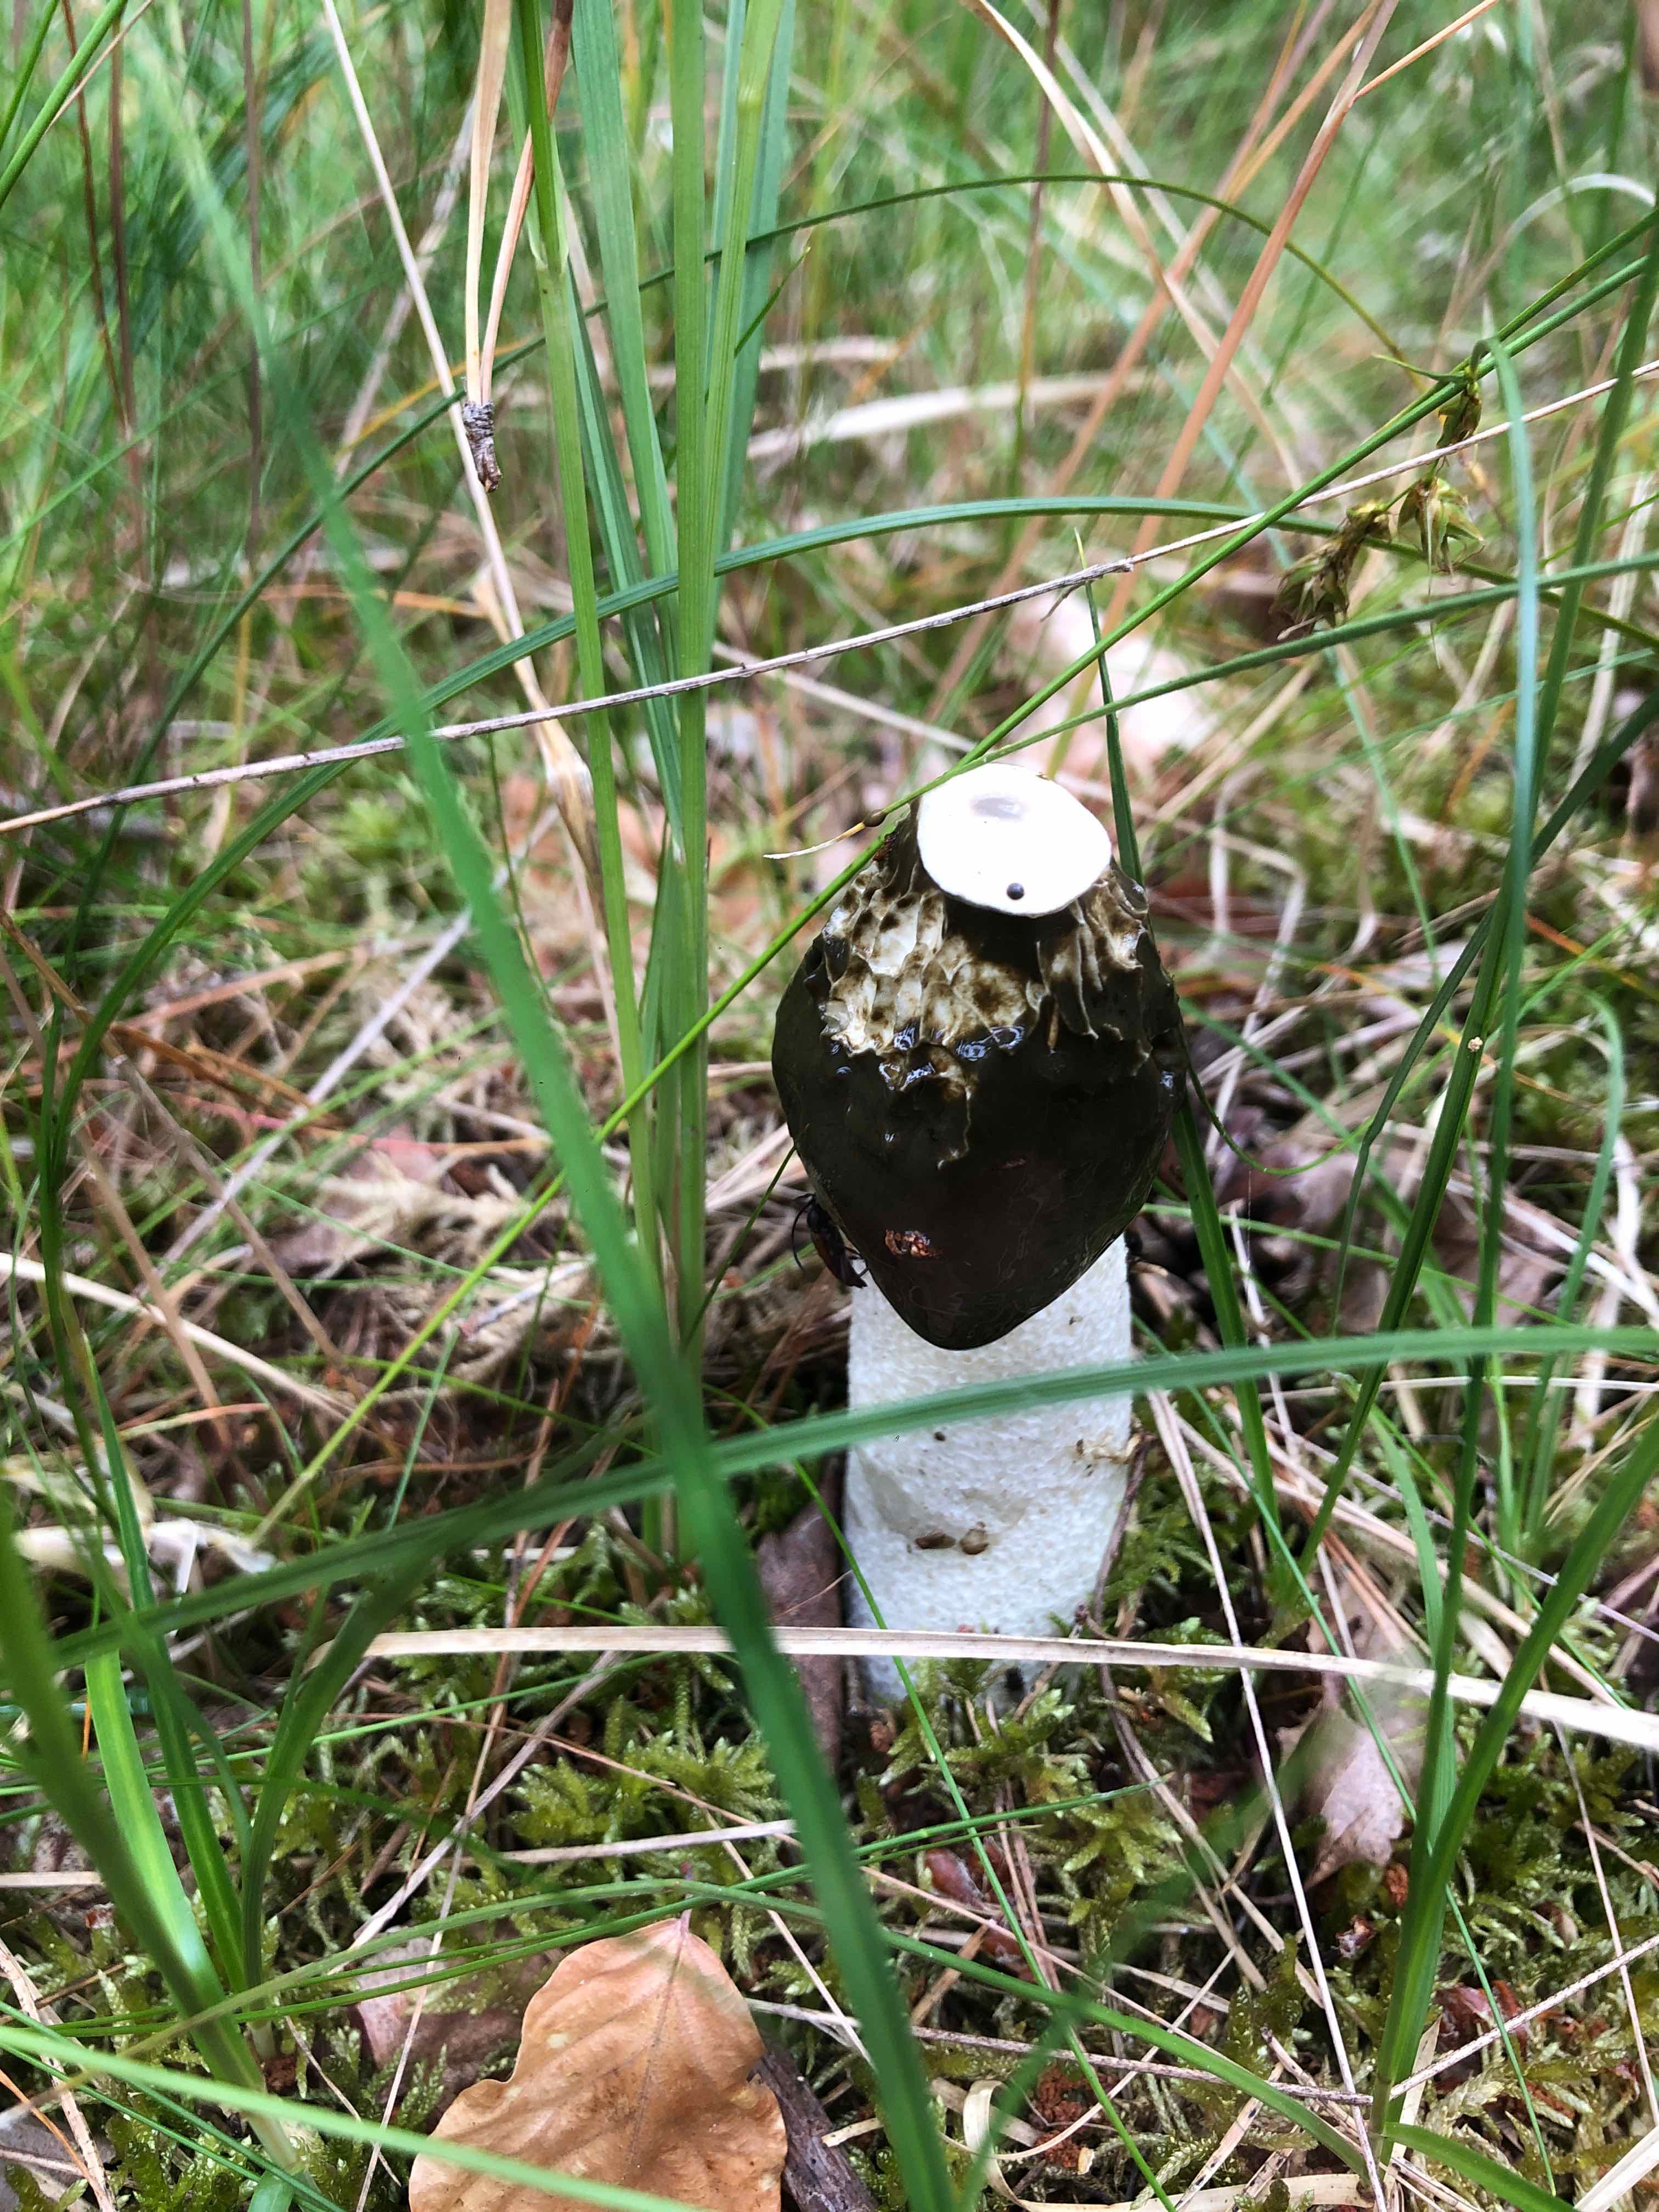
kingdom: Fungi
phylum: Basidiomycota
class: Agaricomycetes
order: Phallales
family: Phallaceae
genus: Phallus
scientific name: Phallus impudicus
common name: almindelig stinksvamp
